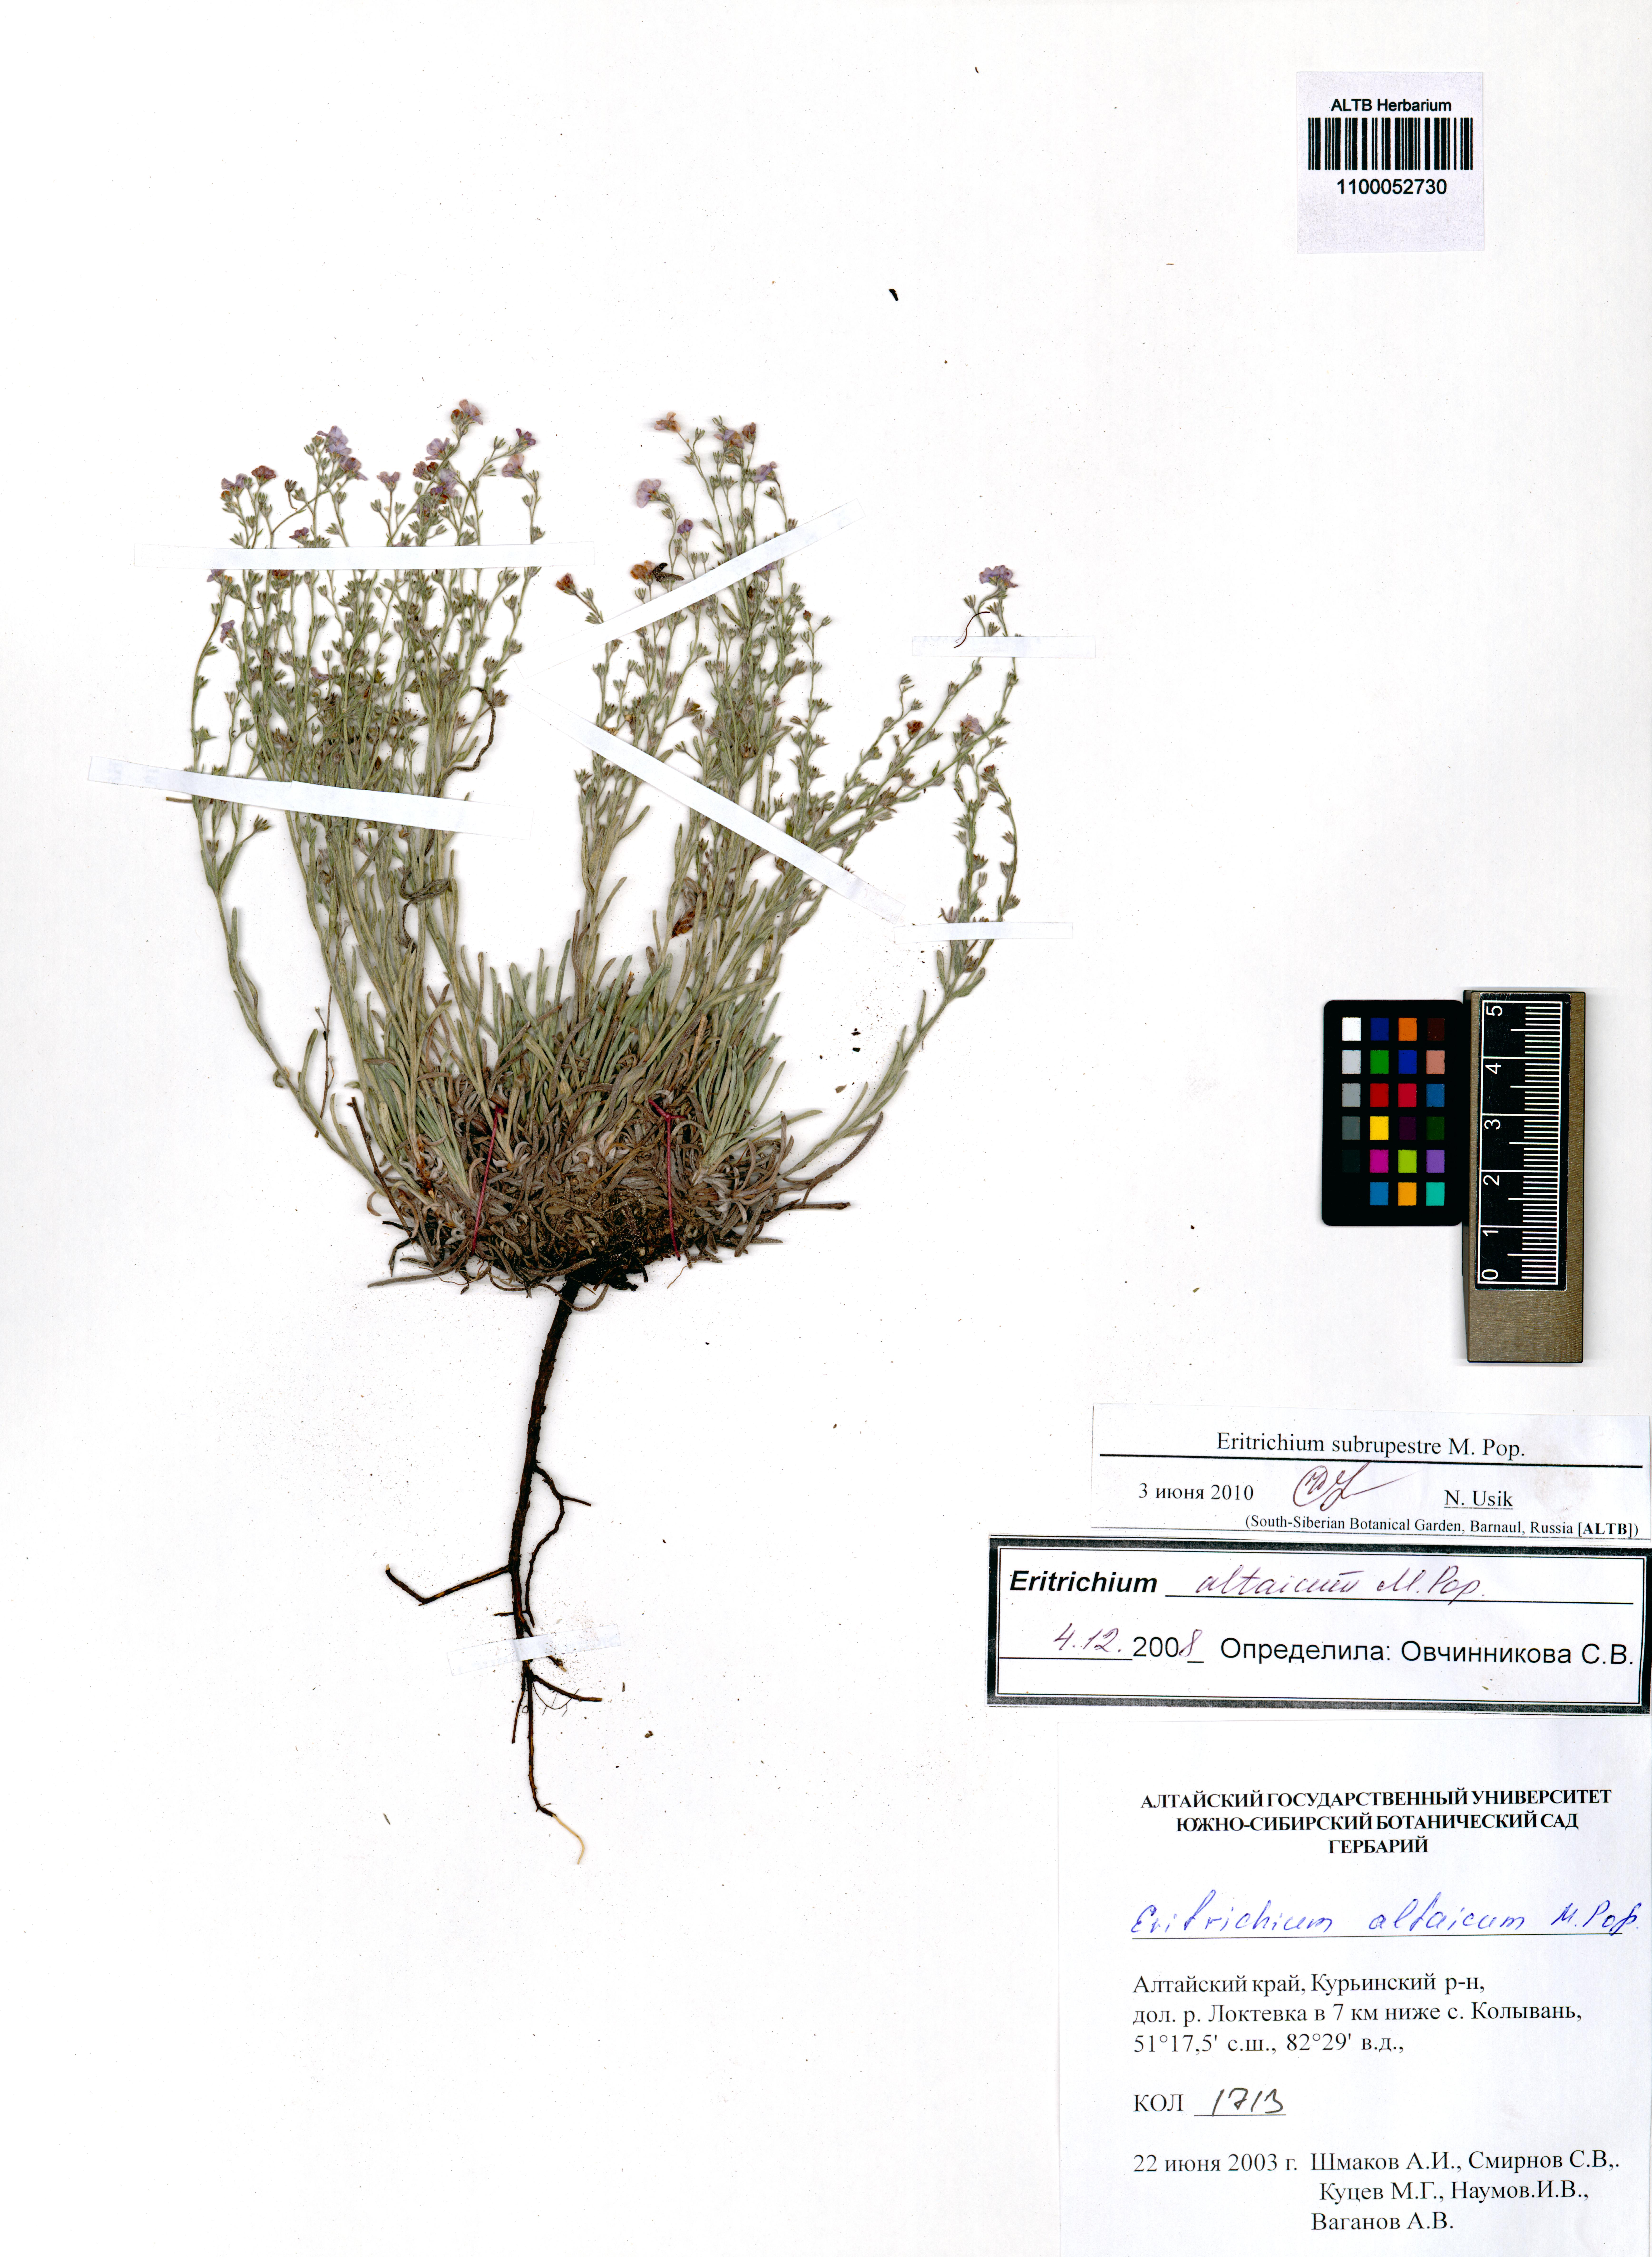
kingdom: Plantae
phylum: Tracheophyta
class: Magnoliopsida
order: Boraginales
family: Boraginaceae
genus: Eritrichium
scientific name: Eritrichium pauciflorum
